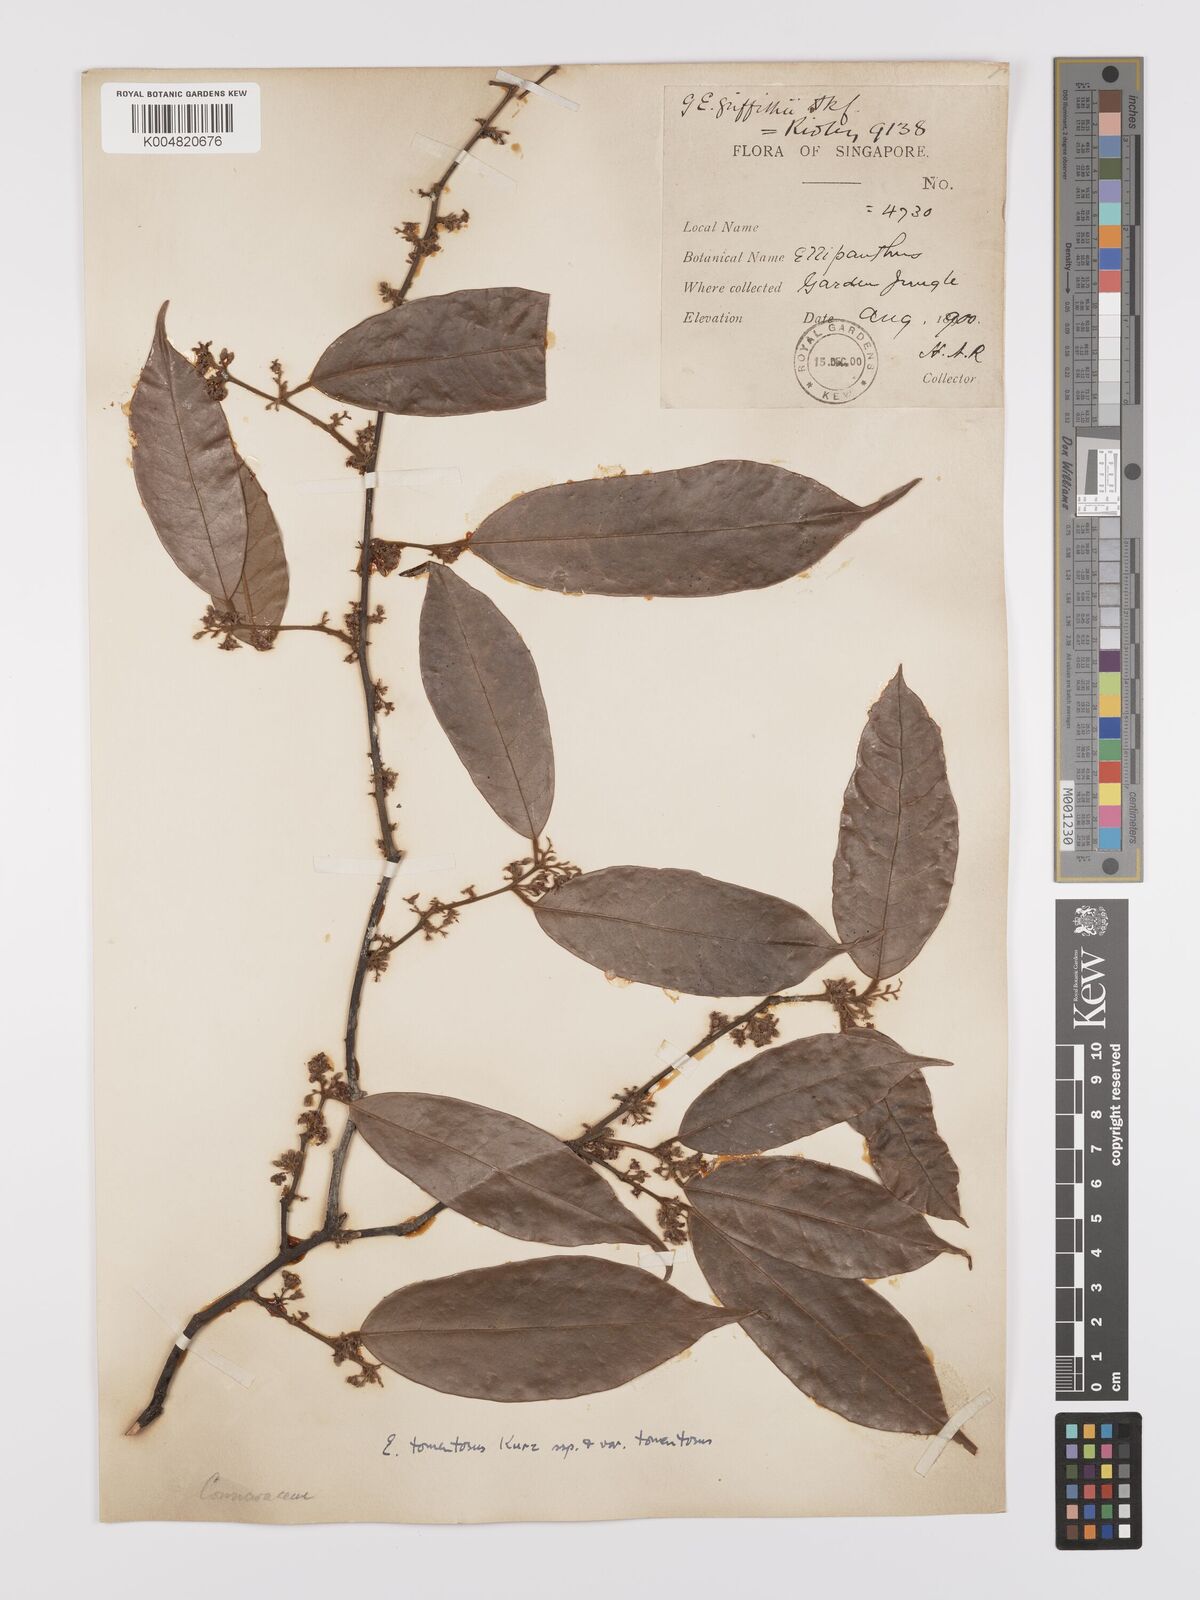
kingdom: Plantae
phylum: Tracheophyta
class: Magnoliopsida
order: Oxalidales
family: Connaraceae
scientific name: Connaraceae
